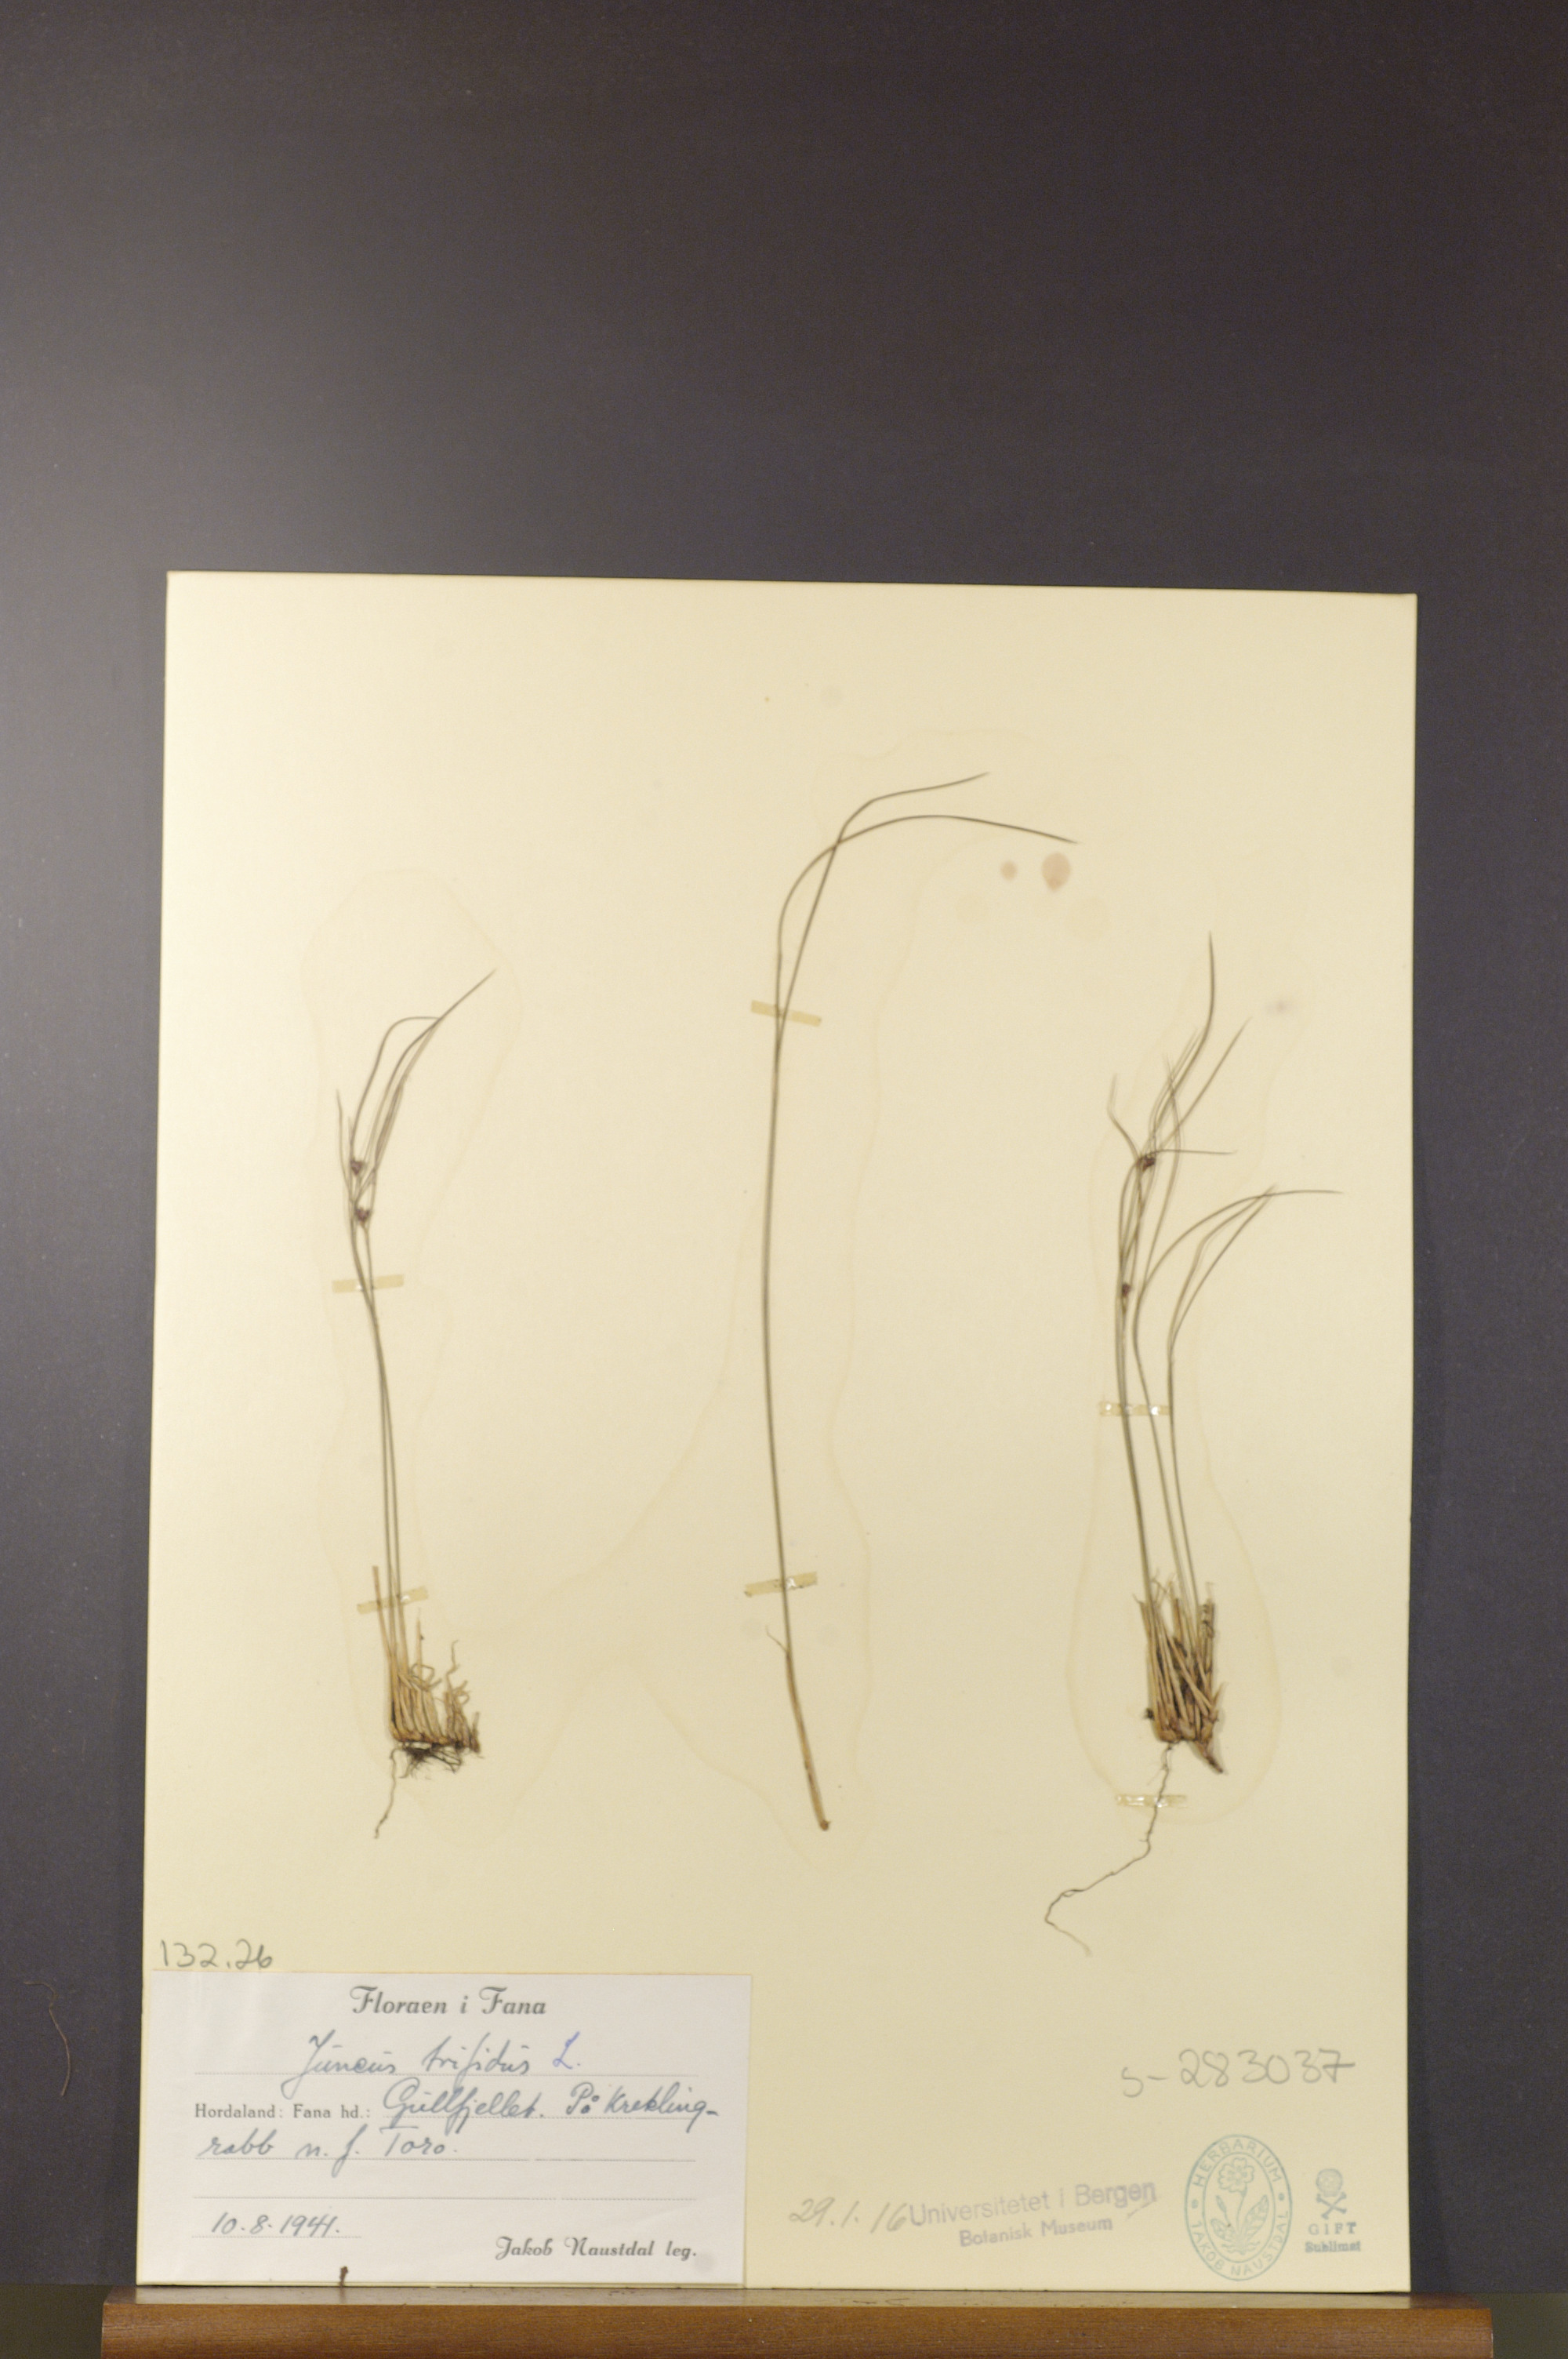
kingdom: Plantae
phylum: Tracheophyta
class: Liliopsida
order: Poales
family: Juncaceae
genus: Oreojuncus
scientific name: Oreojuncus trifidus
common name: Highland rush
